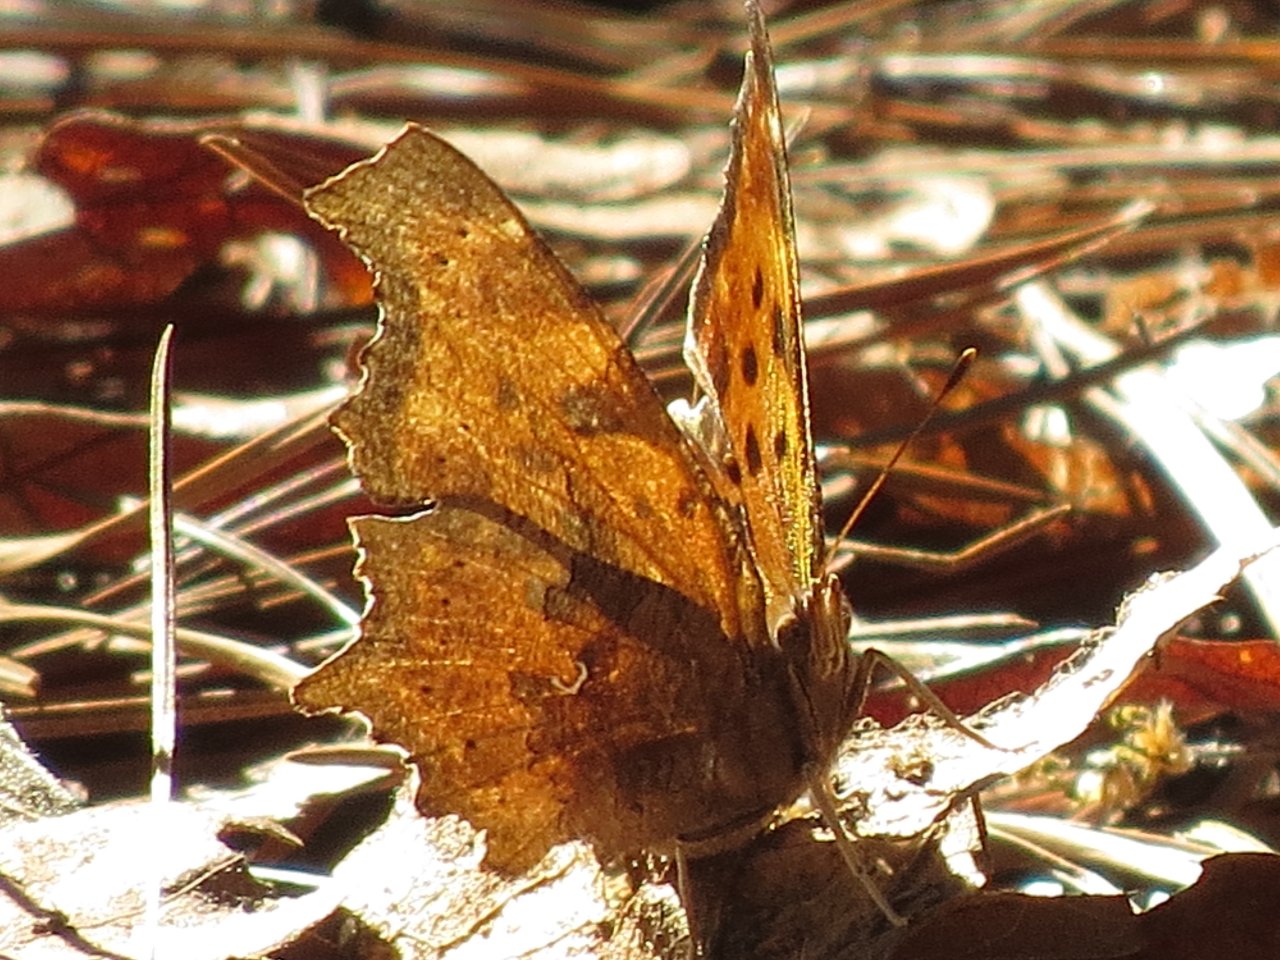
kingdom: Animalia
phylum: Arthropoda
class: Insecta
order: Lepidoptera
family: Nymphalidae
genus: Polygonia
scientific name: Polygonia comma
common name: Eastern Comma
